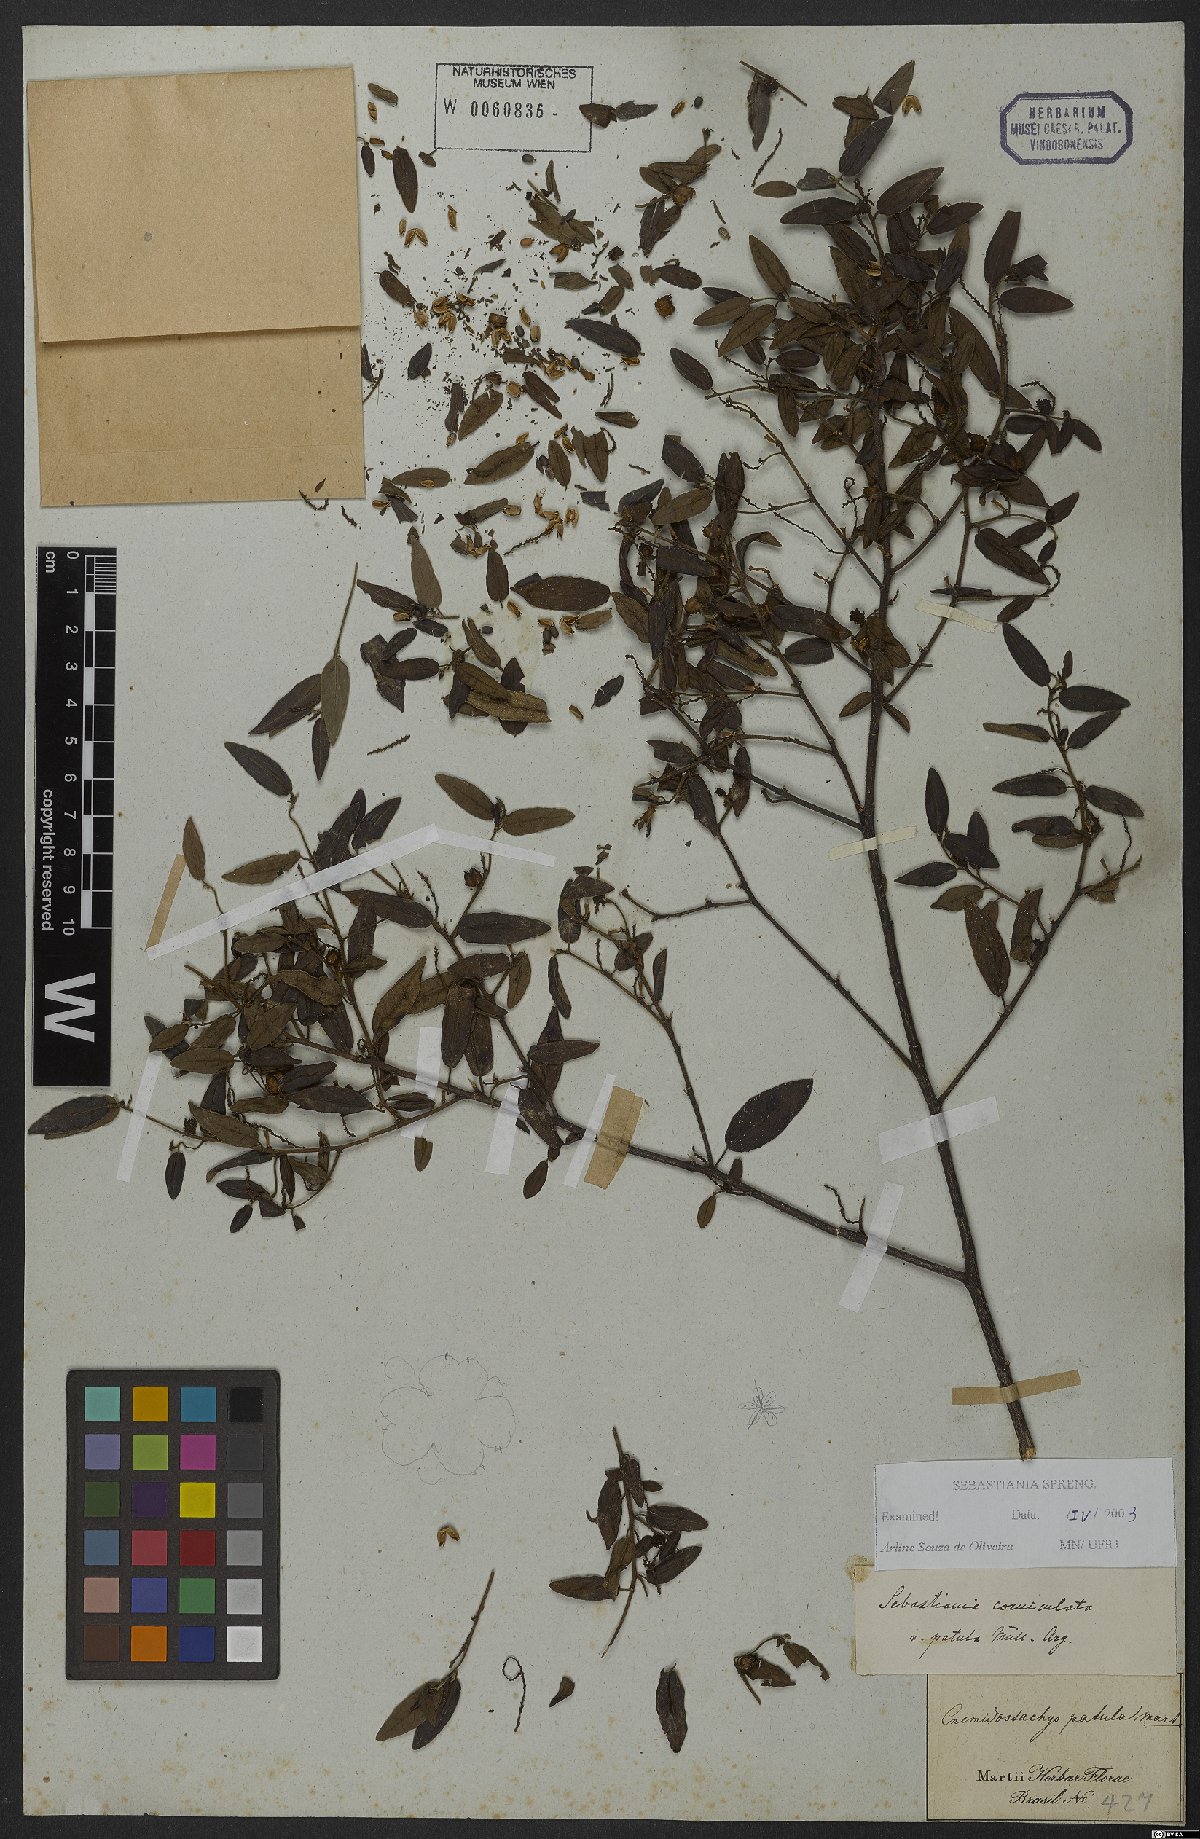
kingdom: Plantae
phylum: Tracheophyta
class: Magnoliopsida
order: Malpighiales
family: Euphorbiaceae
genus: Microstachys
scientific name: Microstachys corniculata
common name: Hato tejas
